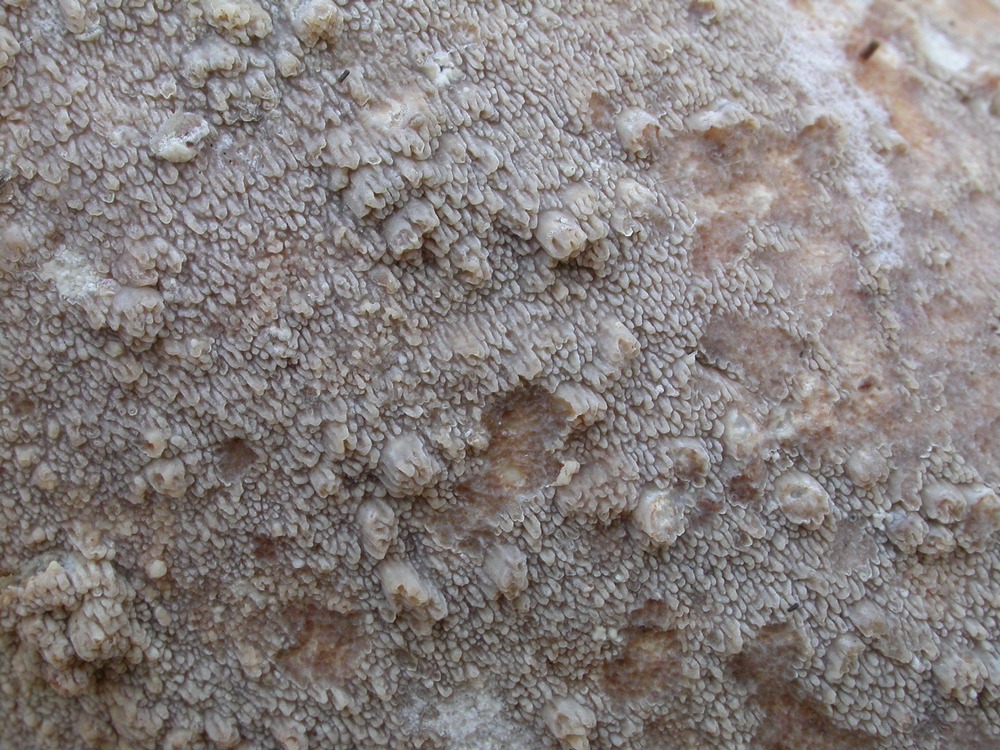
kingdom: Fungi
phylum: Basidiomycota
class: Agaricomycetes
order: Polyporales
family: Meruliaceae
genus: Phlebia
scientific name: Phlebia rufa
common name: ege-åresvamp
